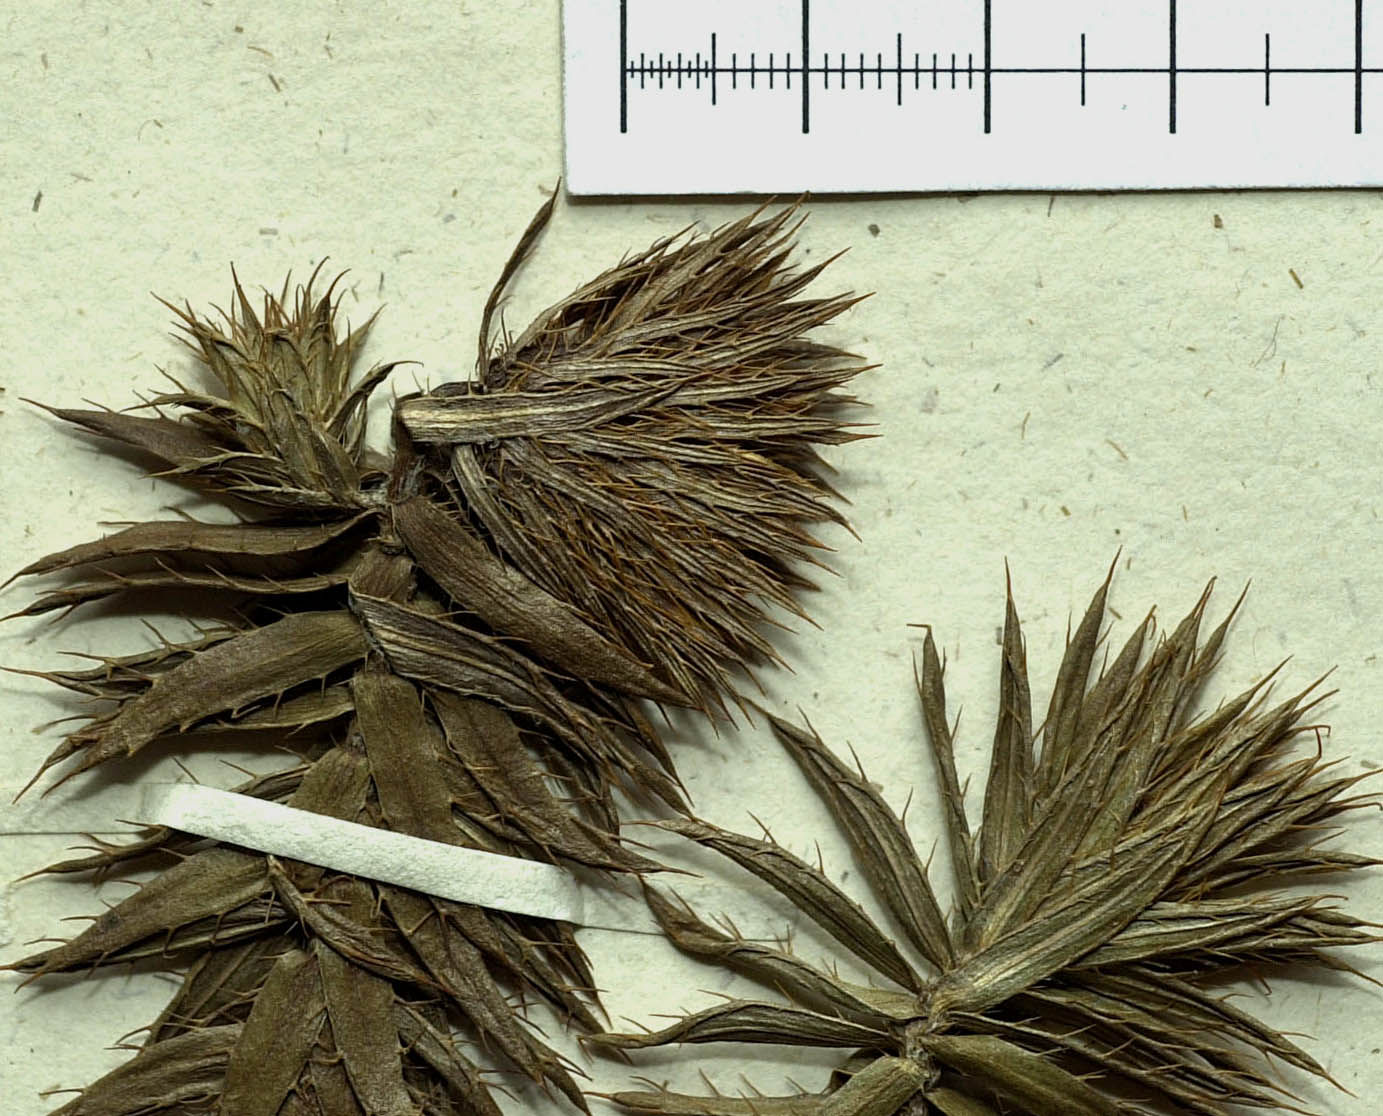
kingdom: Plantae
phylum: Tracheophyta
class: Magnoliopsida
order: Asterales
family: Asteraceae
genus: Cullumia
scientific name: Cullumia carlinoides
